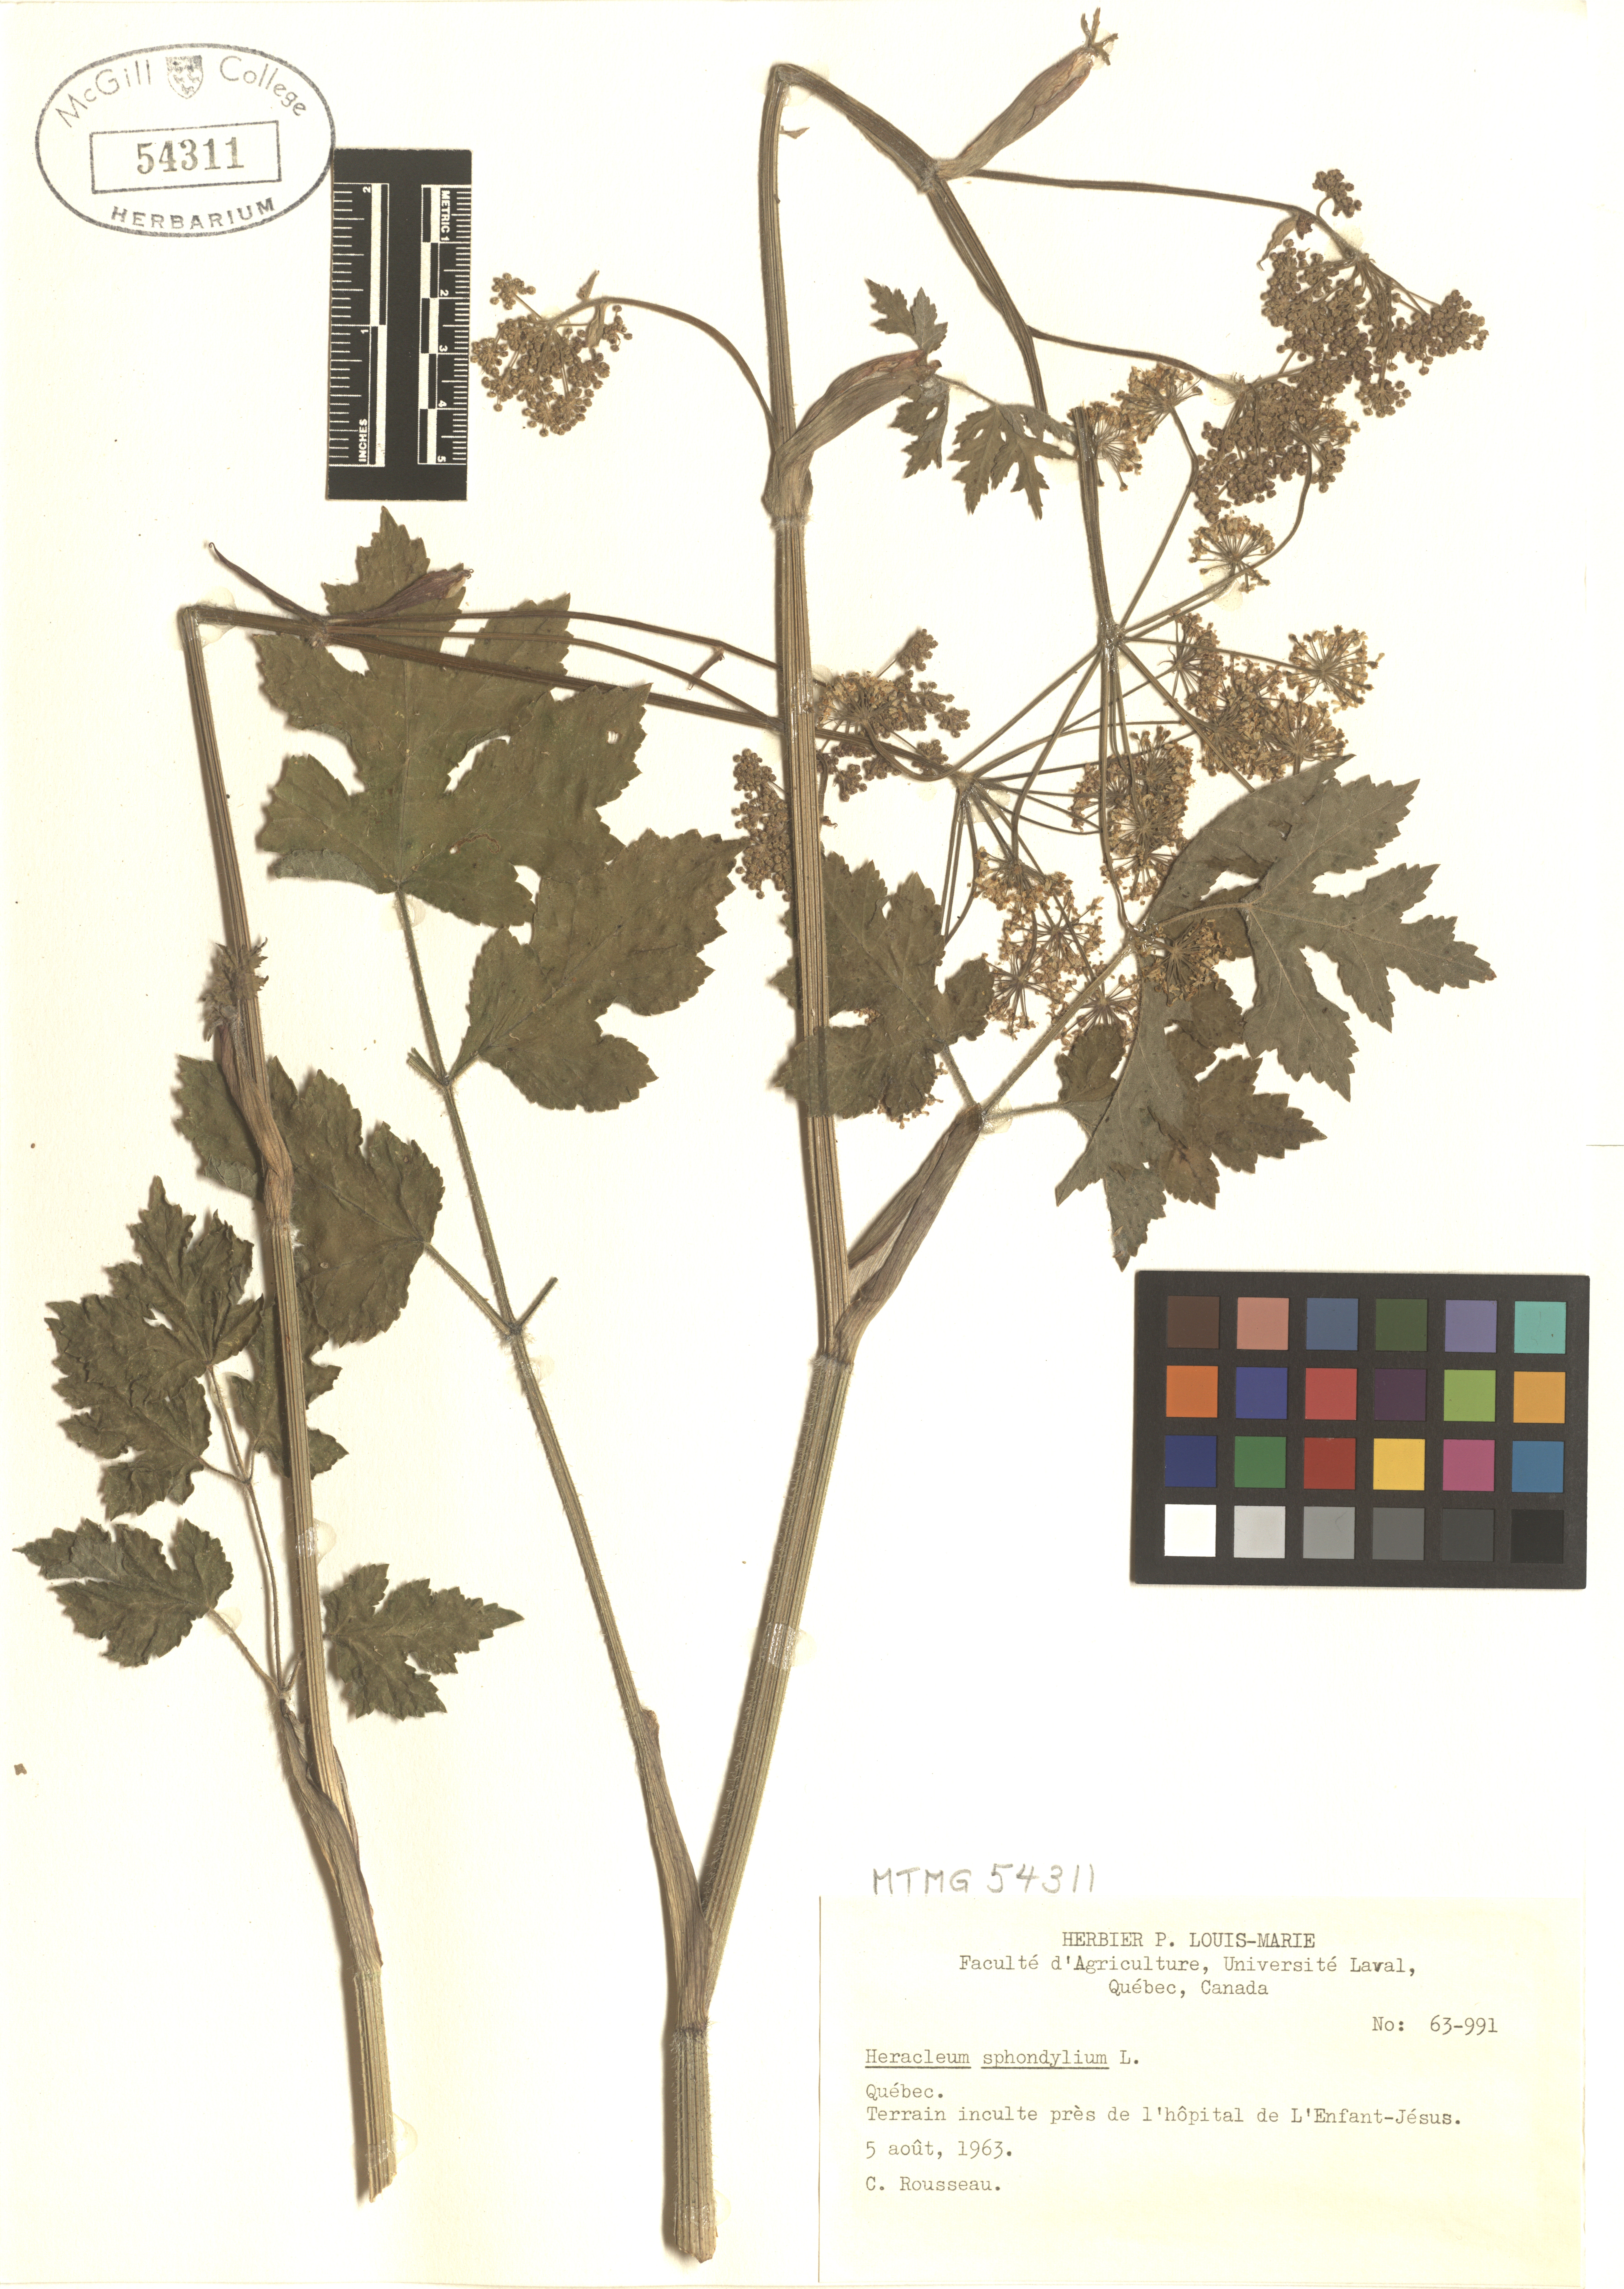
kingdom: Plantae
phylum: Tracheophyta
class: Magnoliopsida
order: Apiales
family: Apiaceae
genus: Heracleum
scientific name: Heracleum sphondylium
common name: Hogweed
